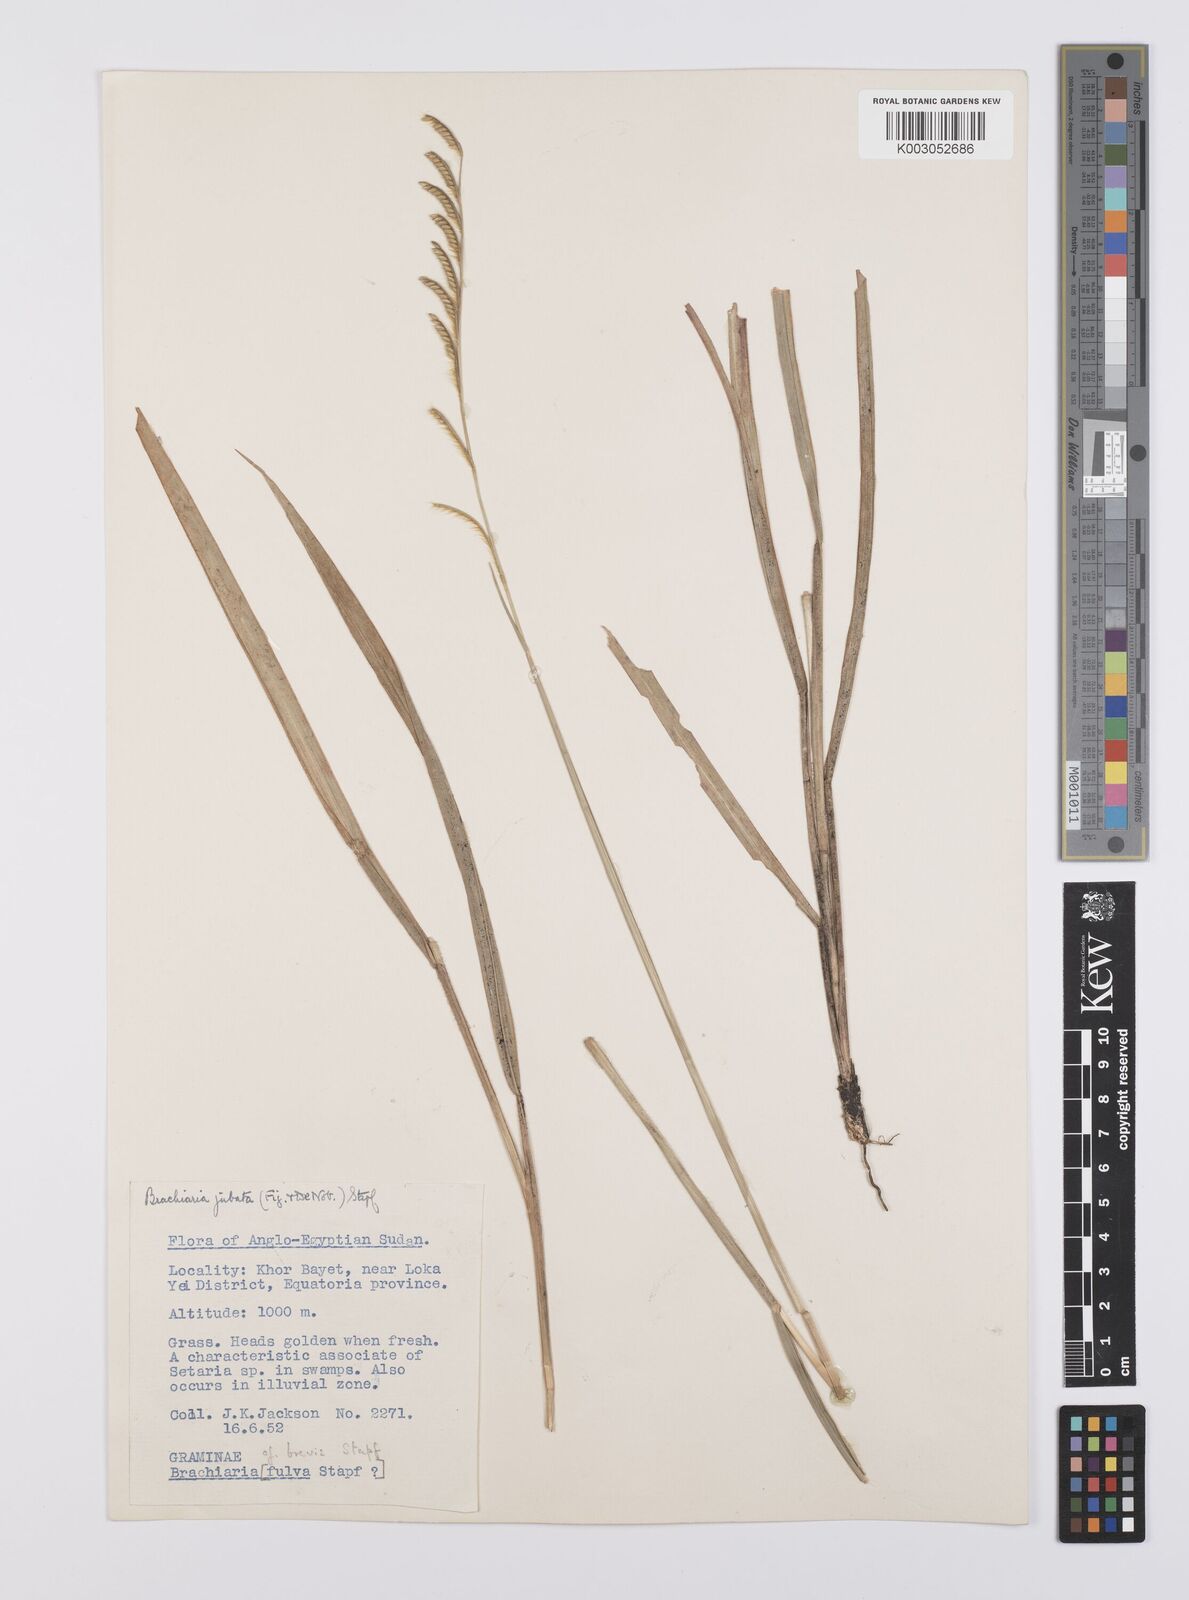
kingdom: Plantae
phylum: Tracheophyta
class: Liliopsida
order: Poales
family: Poaceae
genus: Urochloa
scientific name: Urochloa jubata
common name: Buffalograss
